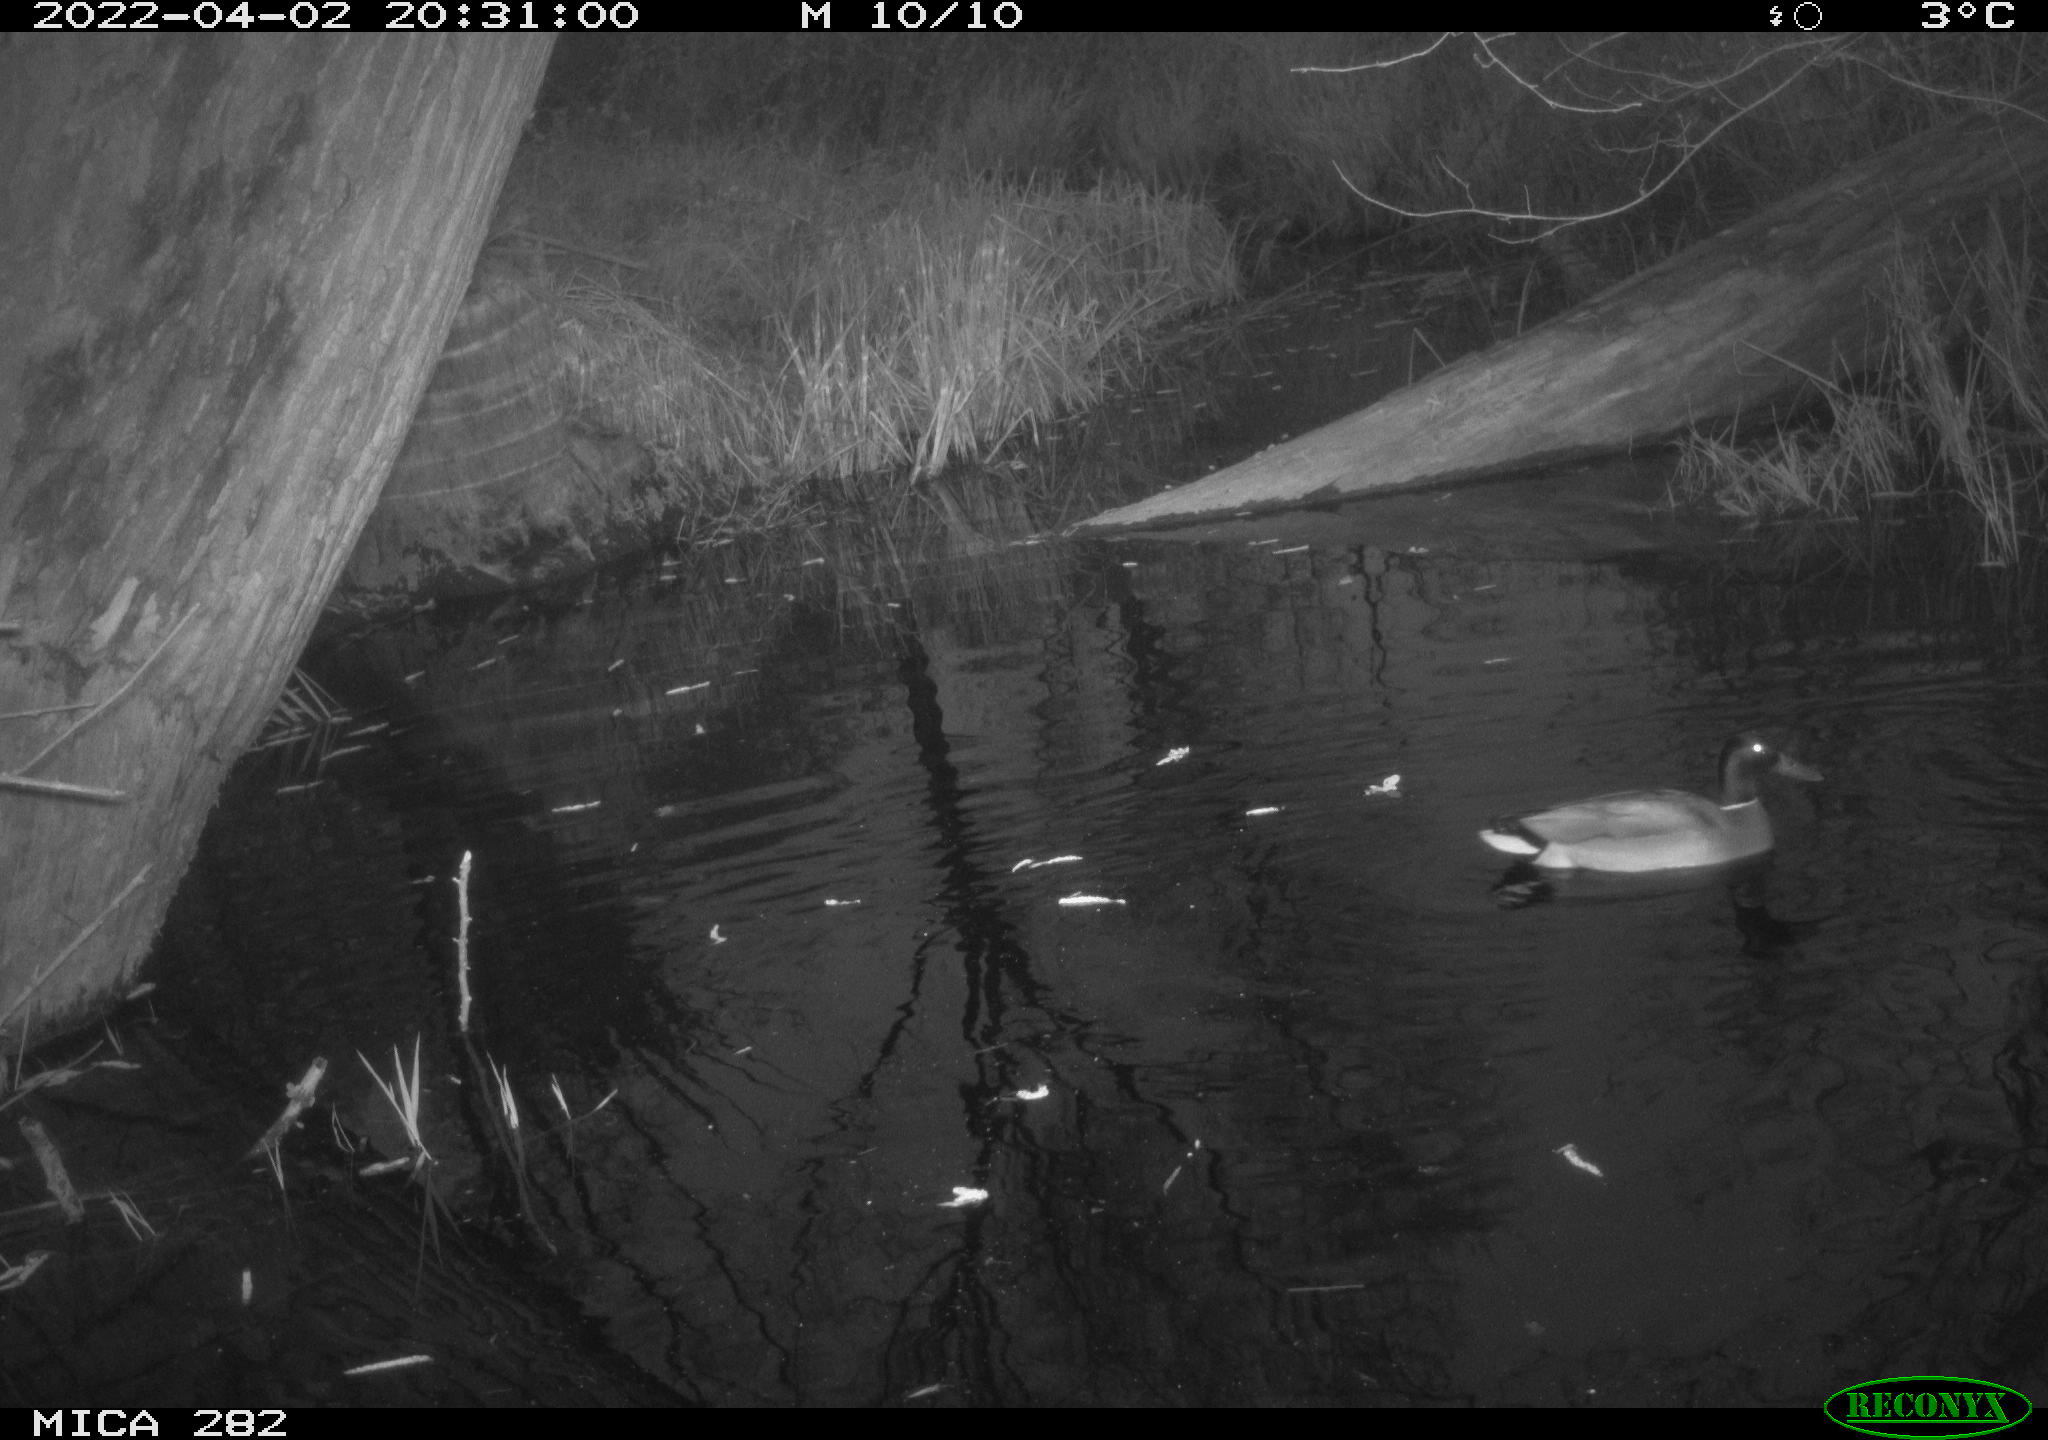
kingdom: Animalia
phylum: Chordata
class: Aves
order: Anseriformes
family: Anatidae
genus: Anas
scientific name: Anas platyrhynchos
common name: Mallard
